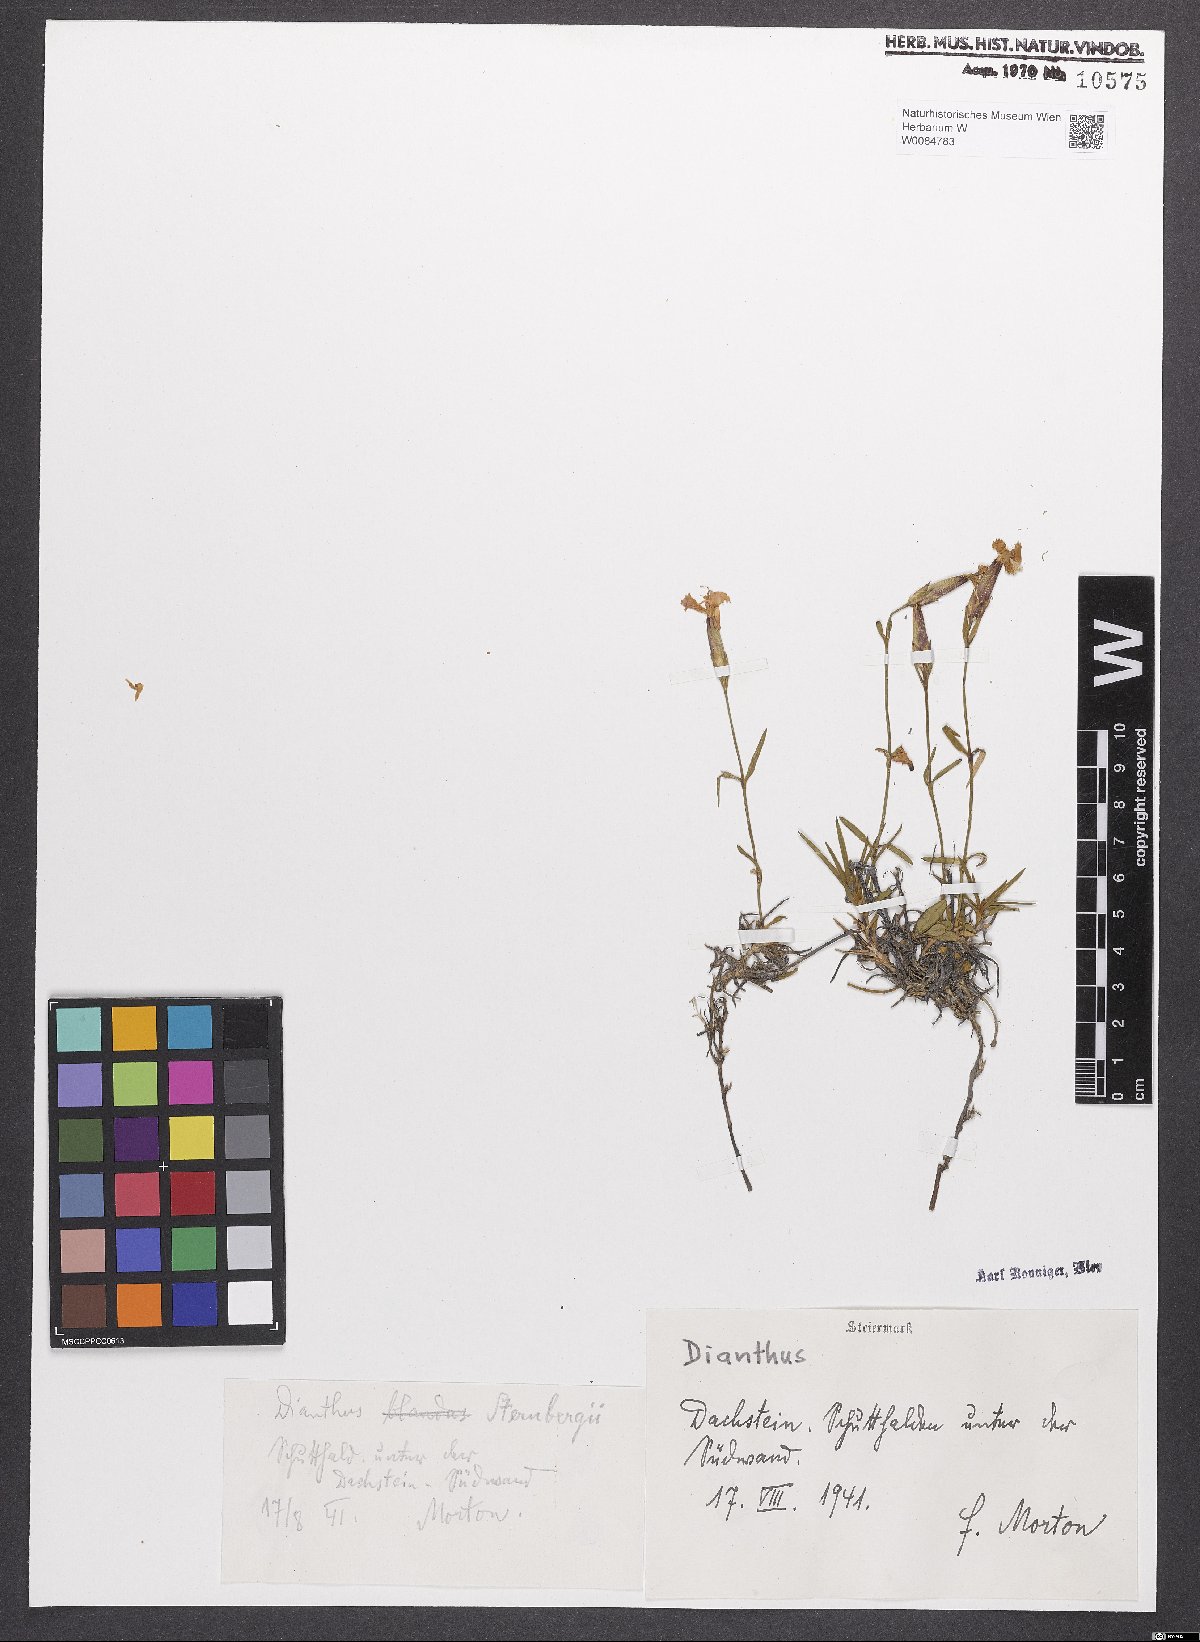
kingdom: Plantae
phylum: Tracheophyta
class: Magnoliopsida
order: Caryophyllales
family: Caryophyllaceae
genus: Dianthus
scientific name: Dianthus monspessulanus
